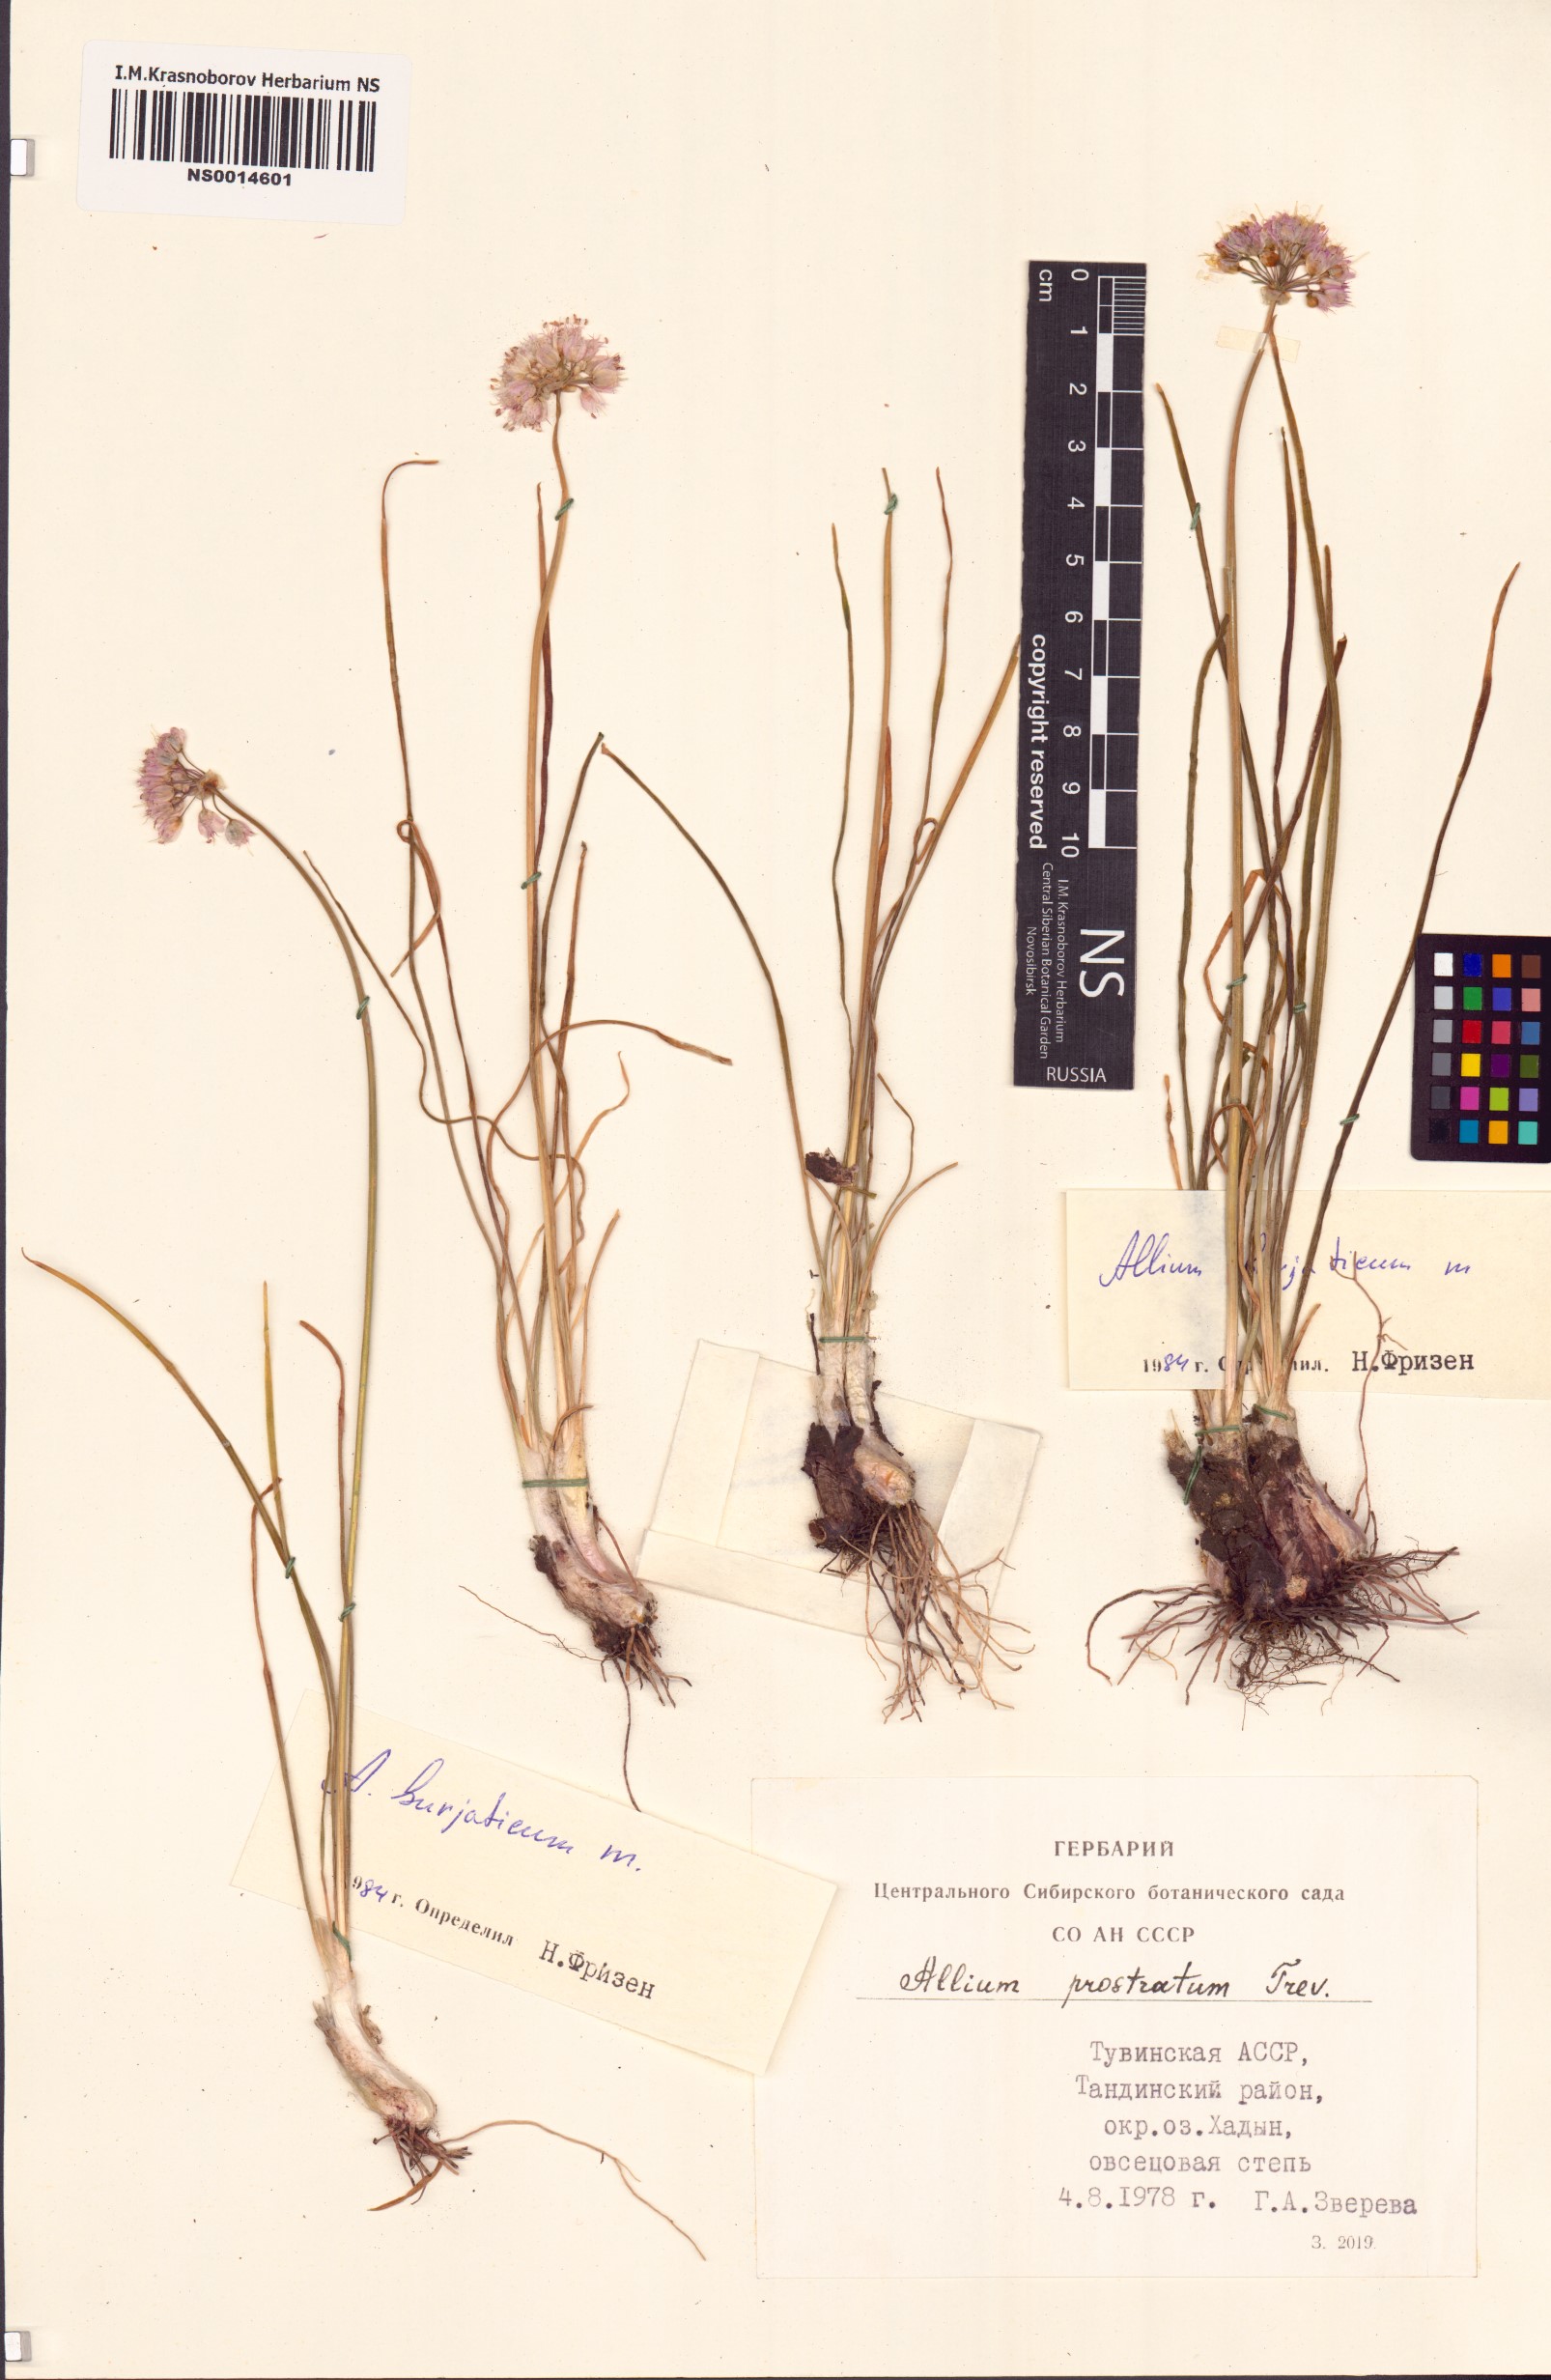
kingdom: Plantae
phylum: Tracheophyta
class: Liliopsida
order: Asparagales
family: Amaryllidaceae
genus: Allium
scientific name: Allium burjaticum
